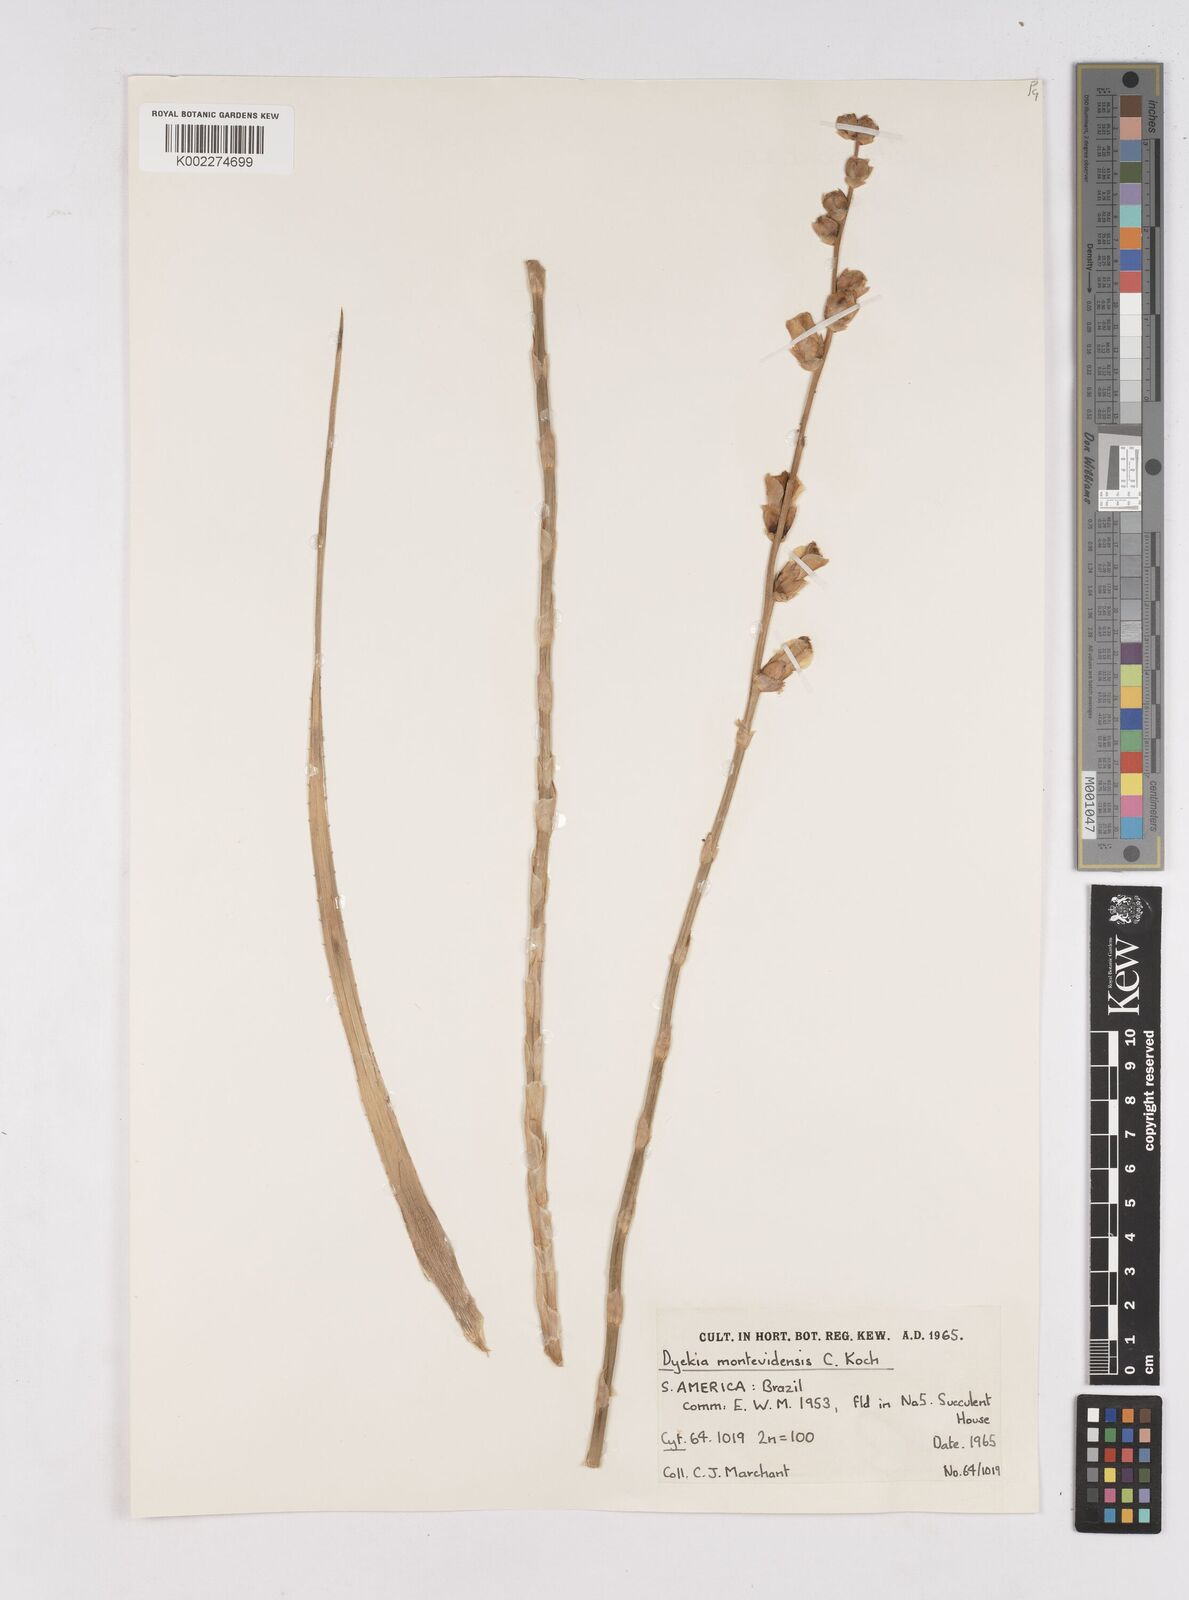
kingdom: Plantae
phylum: Tracheophyta
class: Liliopsida
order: Poales
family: Bromeliaceae
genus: Dyckia
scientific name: Dyckia remotiflora
